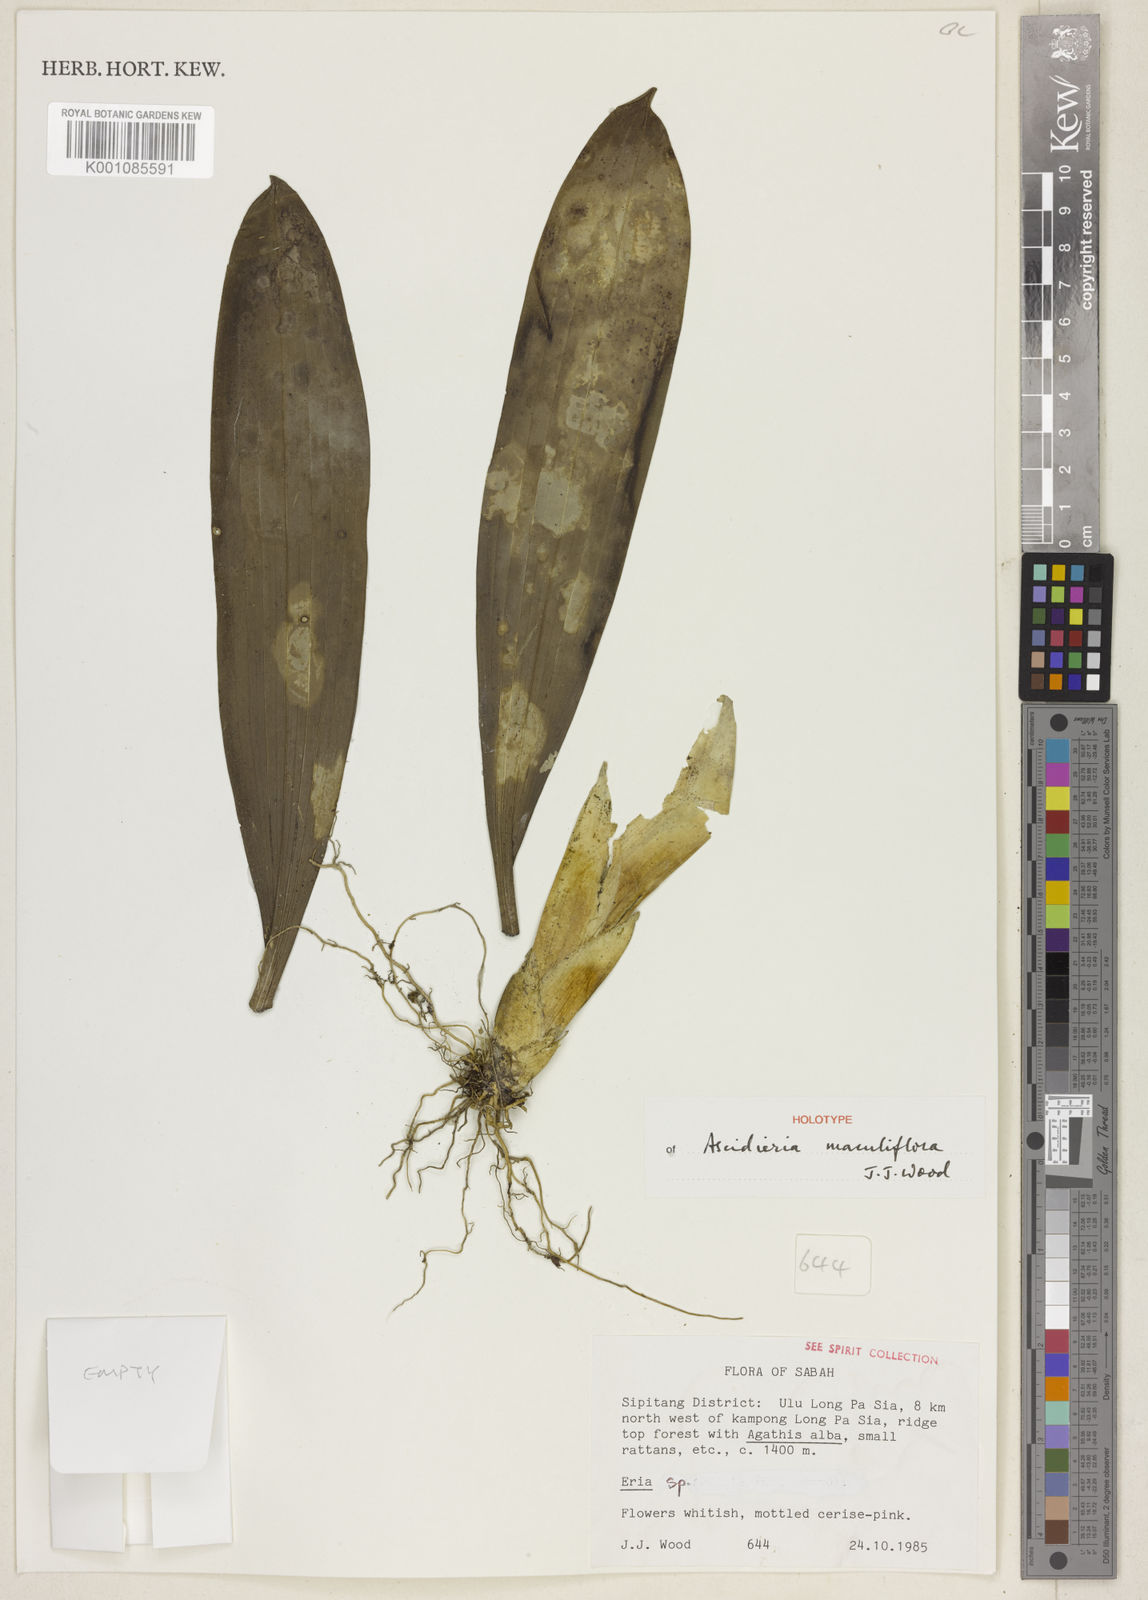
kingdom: Plantae
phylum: Tracheophyta
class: Liliopsida
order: Asparagales
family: Orchidaceae
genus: Cymboglossum
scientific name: Cymboglossum maculiflorum
